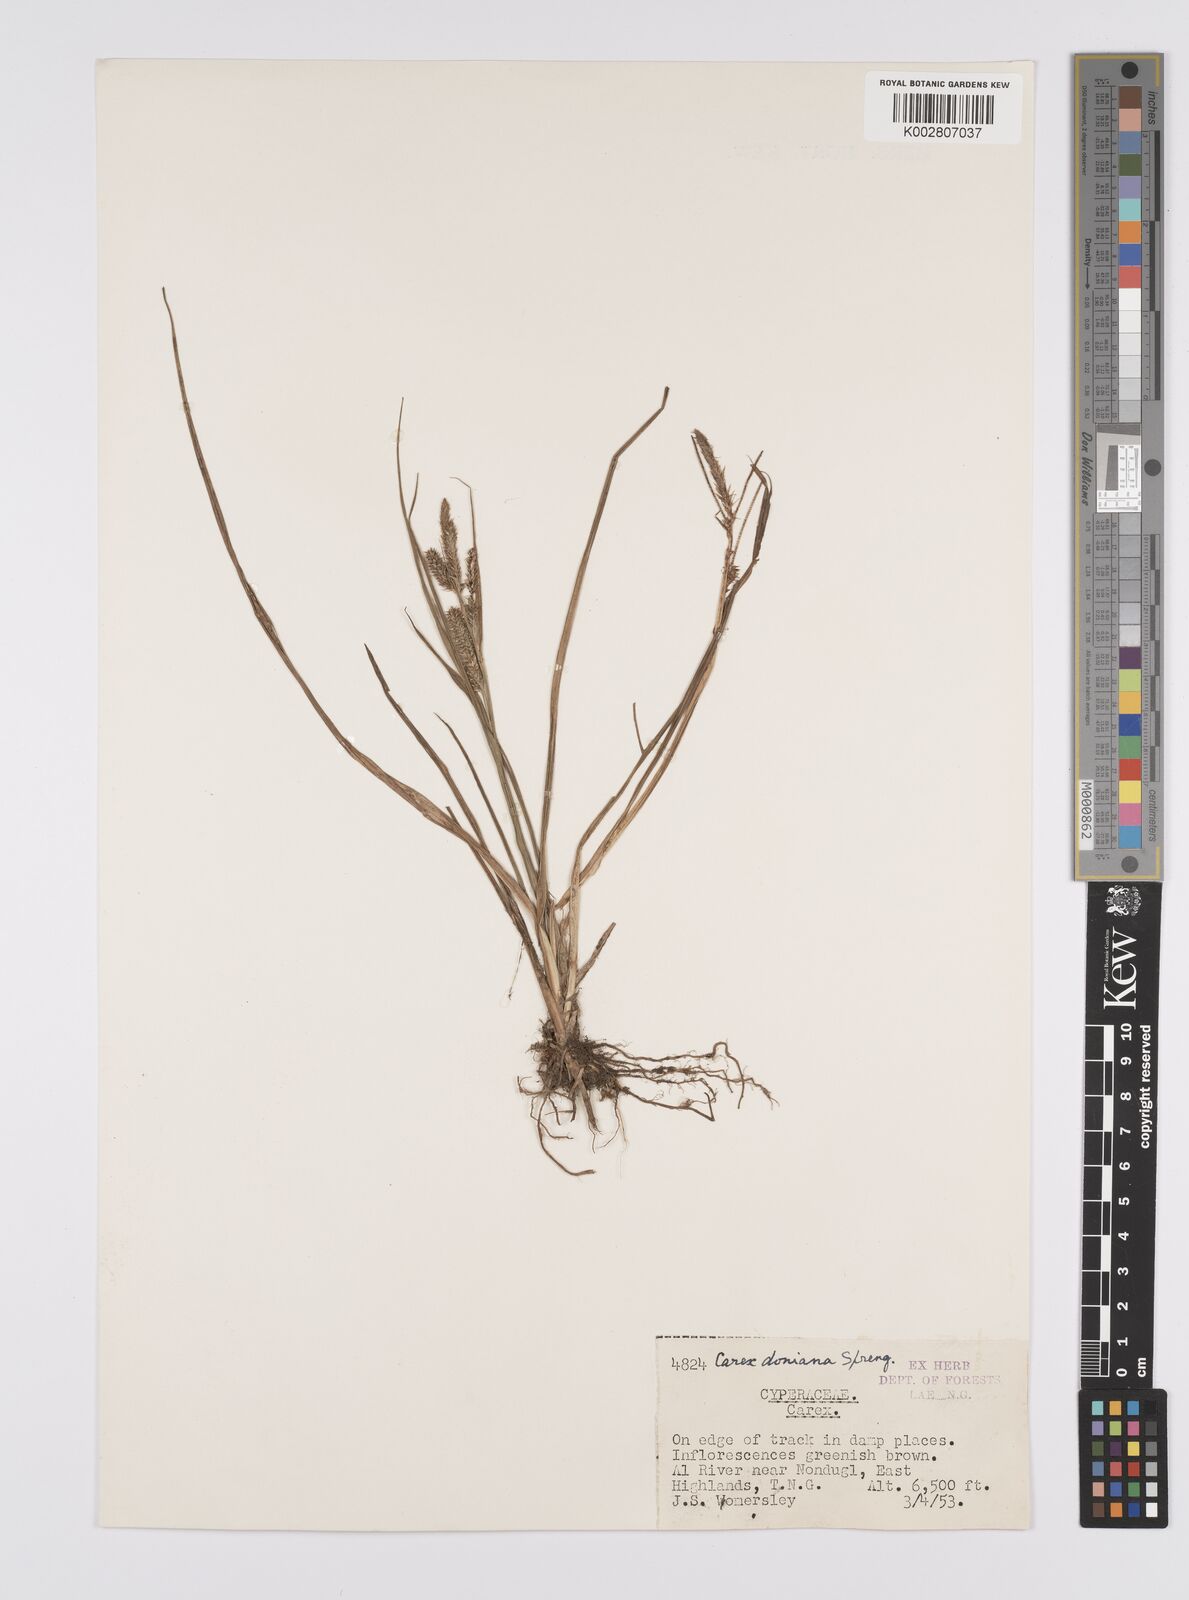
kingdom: Plantae
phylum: Tracheophyta
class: Liliopsida
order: Poales
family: Cyperaceae
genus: Carex
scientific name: Carex alopecuroides
